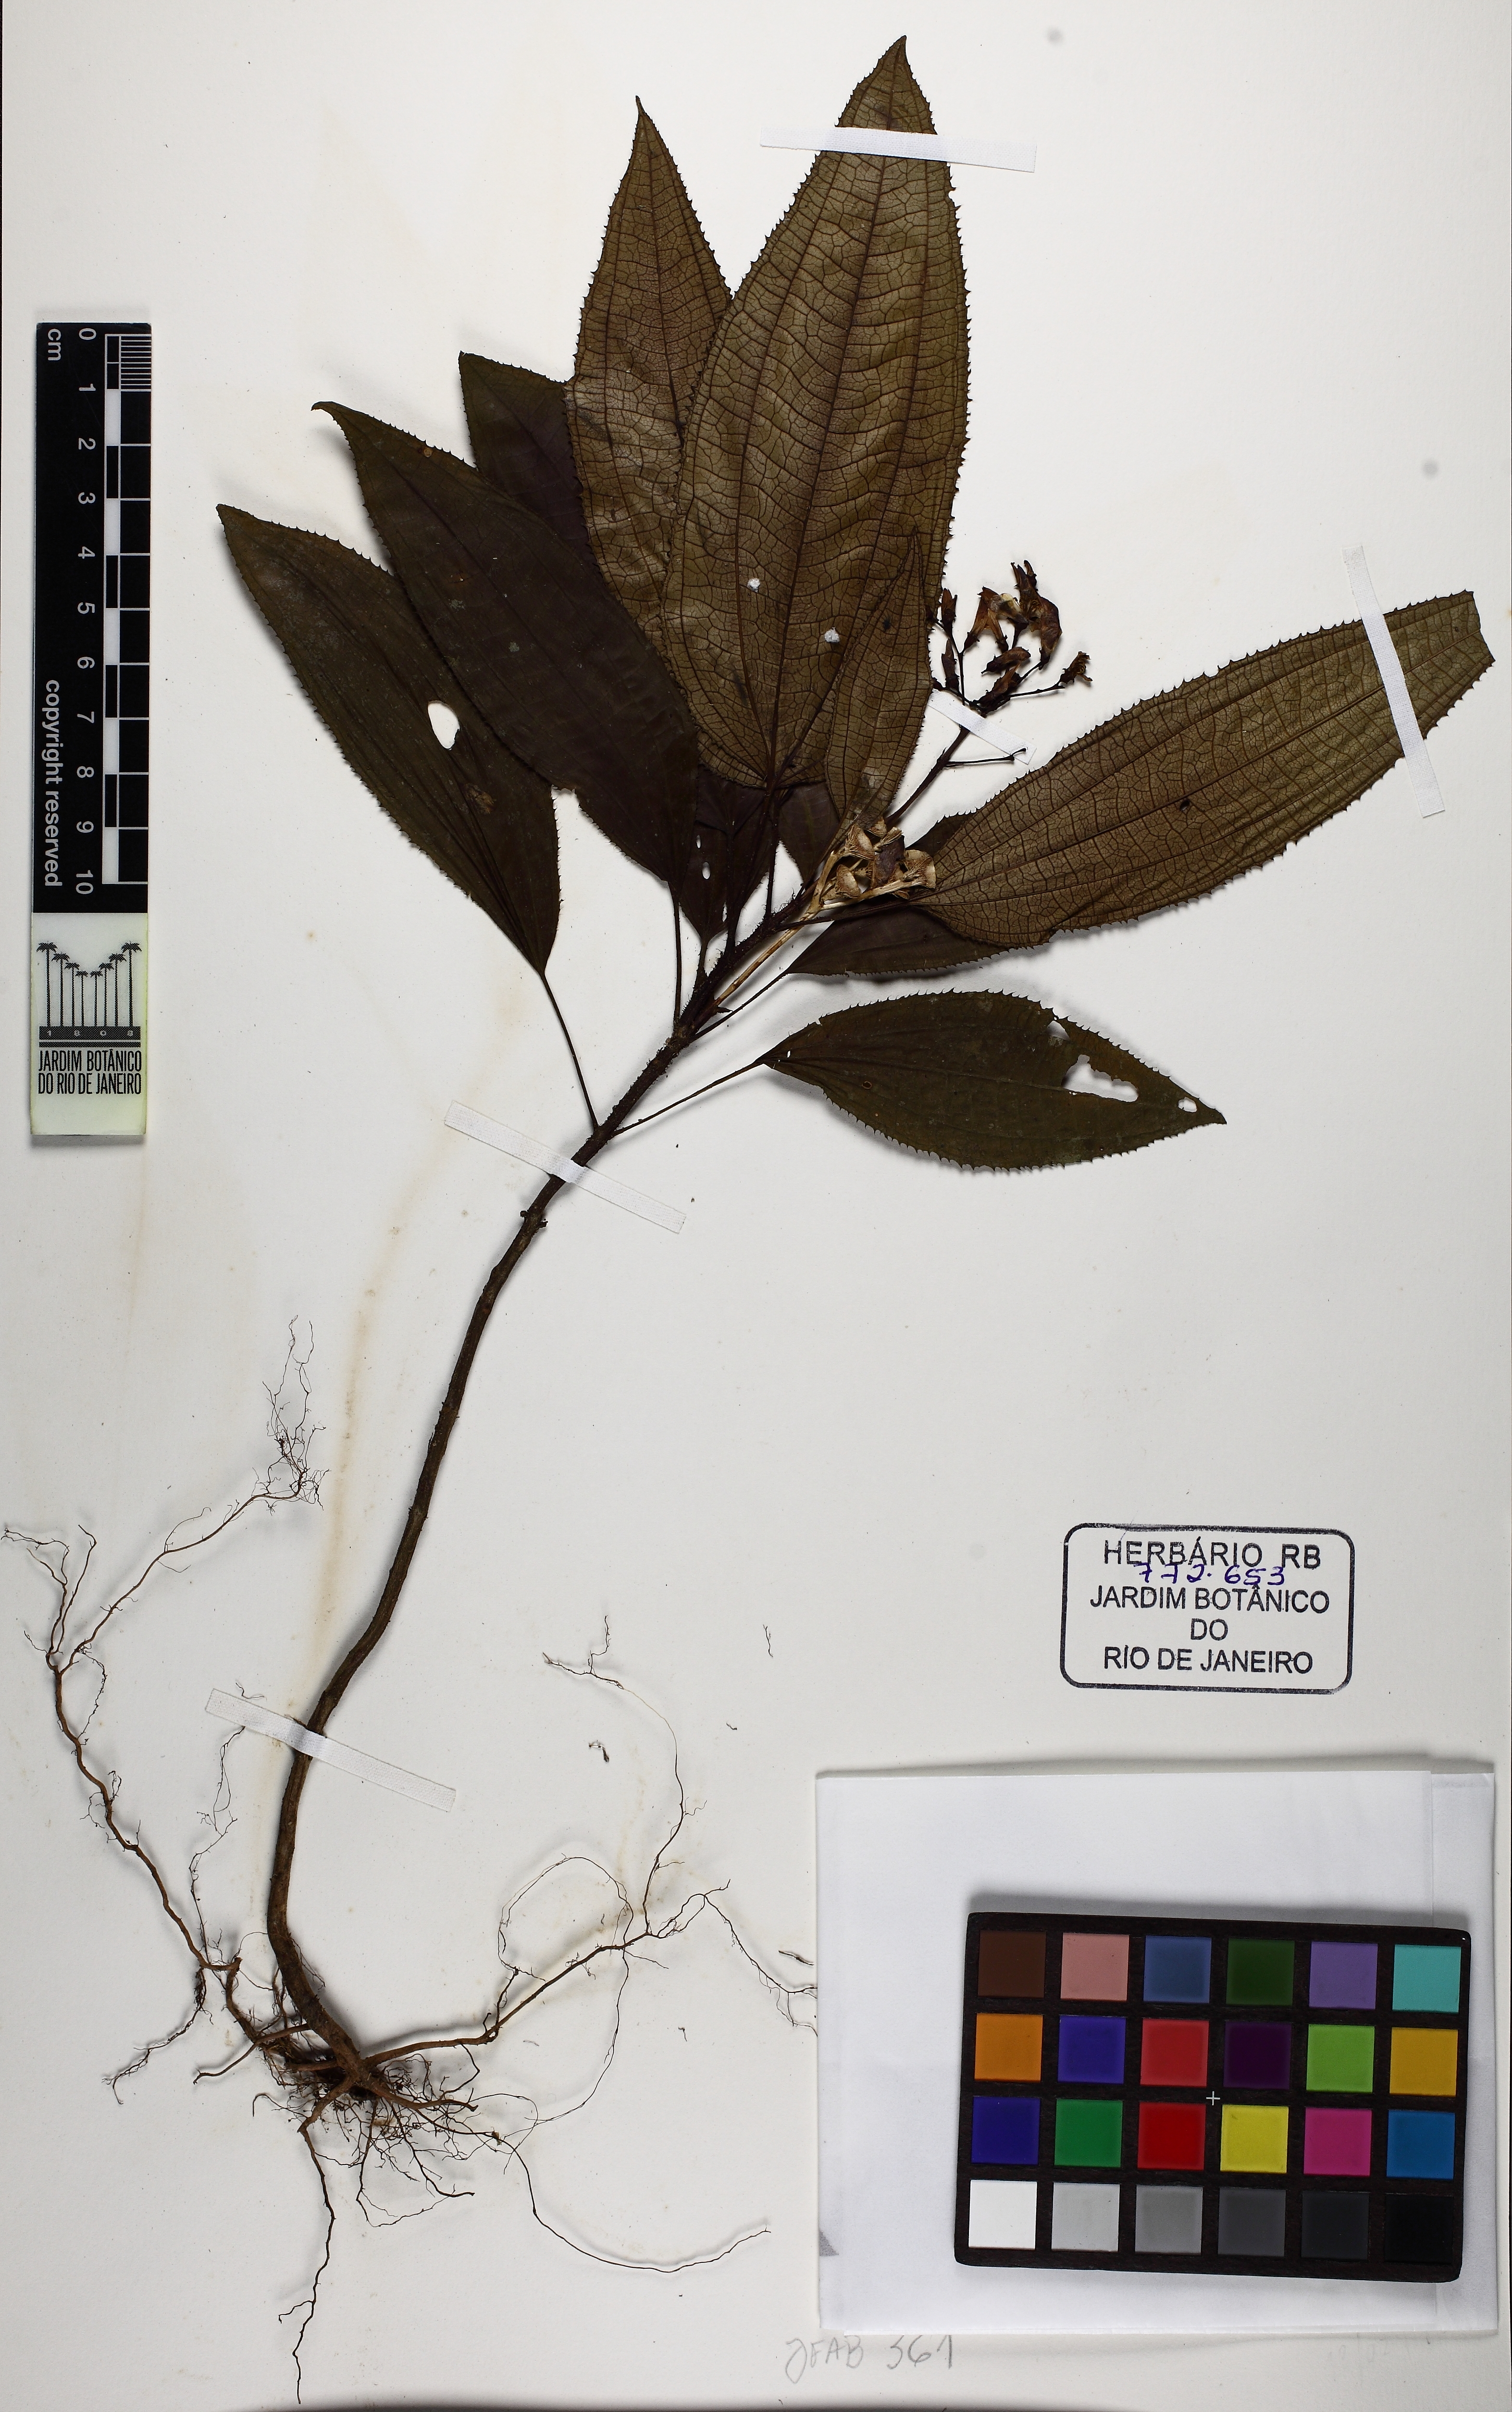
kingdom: Plantae
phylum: Tracheophyta
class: Magnoliopsida
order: Myrtales
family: Melastomataceae
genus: Bertolonia
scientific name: Bertolonia acuminata
